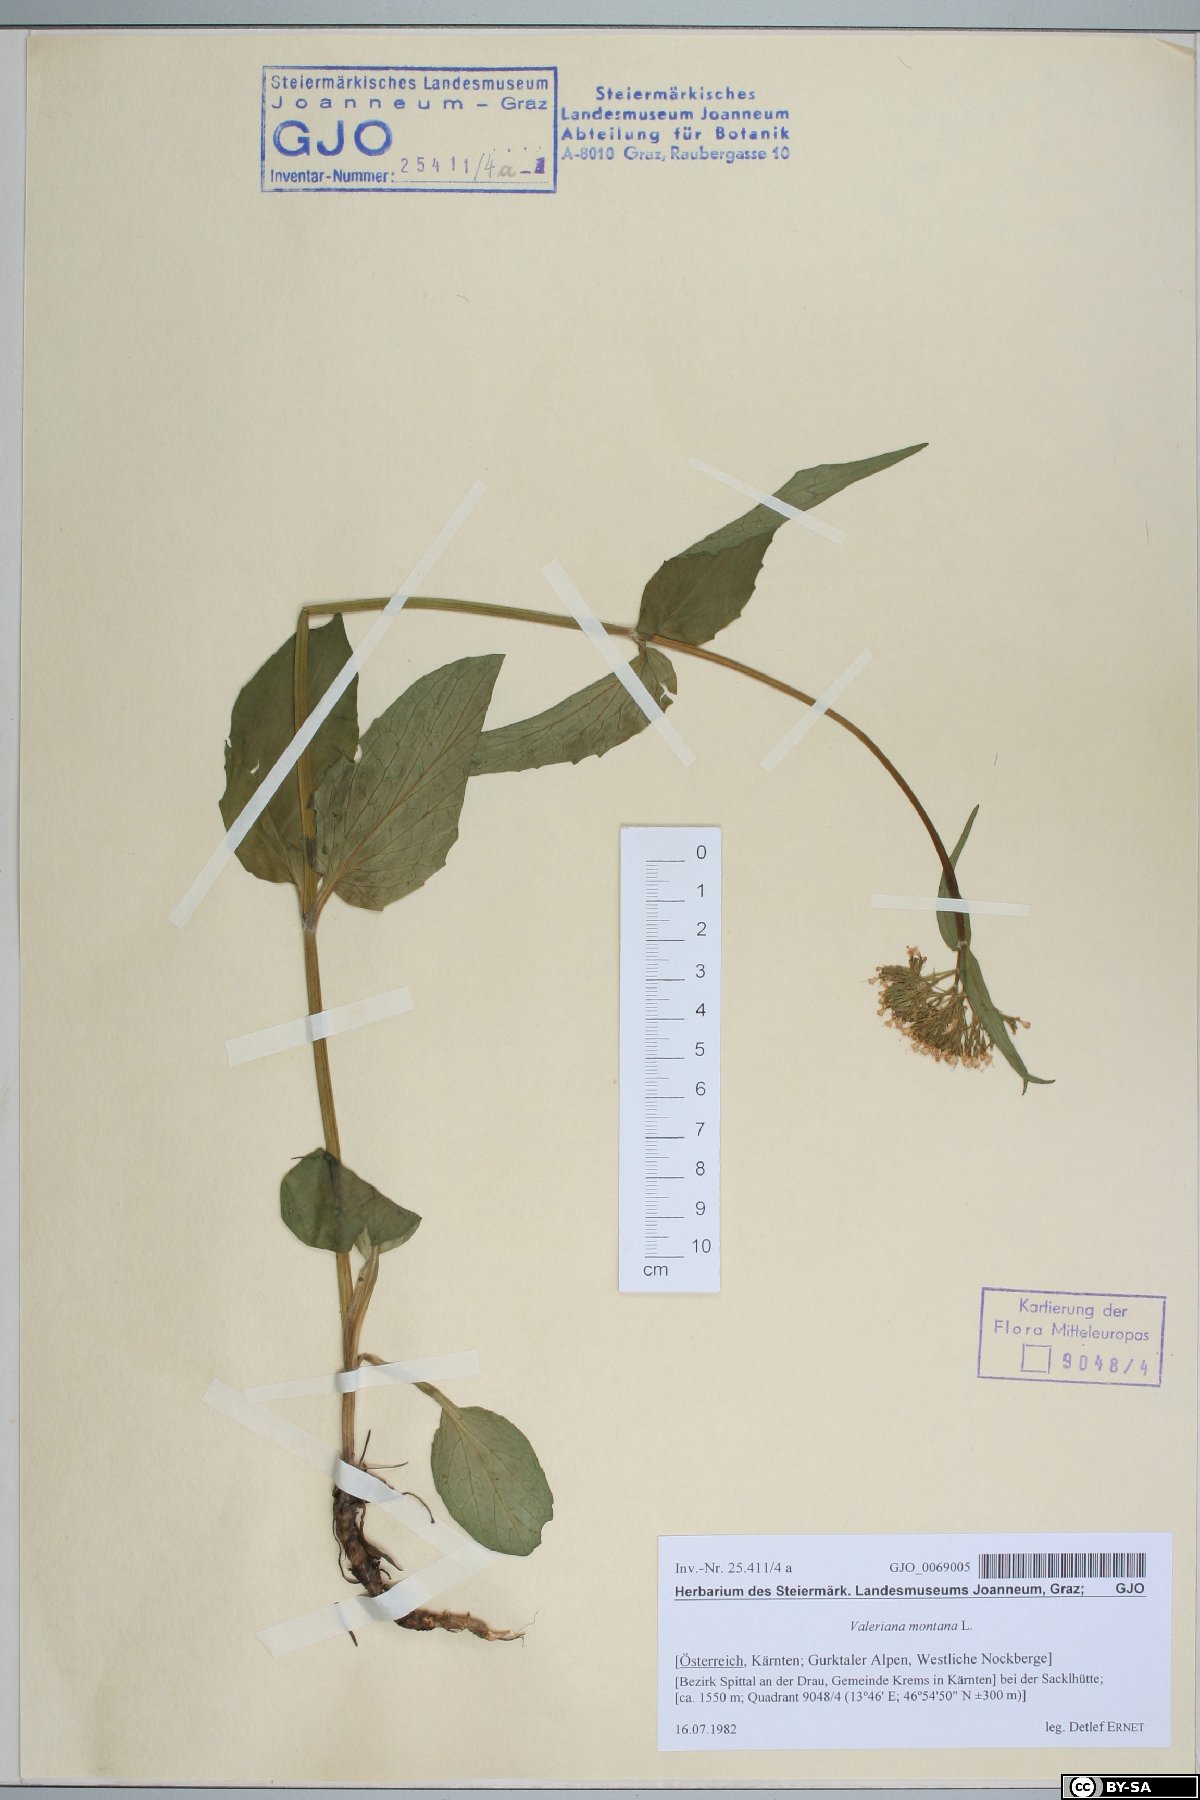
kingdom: Plantae
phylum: Tracheophyta
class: Magnoliopsida
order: Dipsacales
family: Caprifoliaceae
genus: Valeriana
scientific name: Valeriana montana
